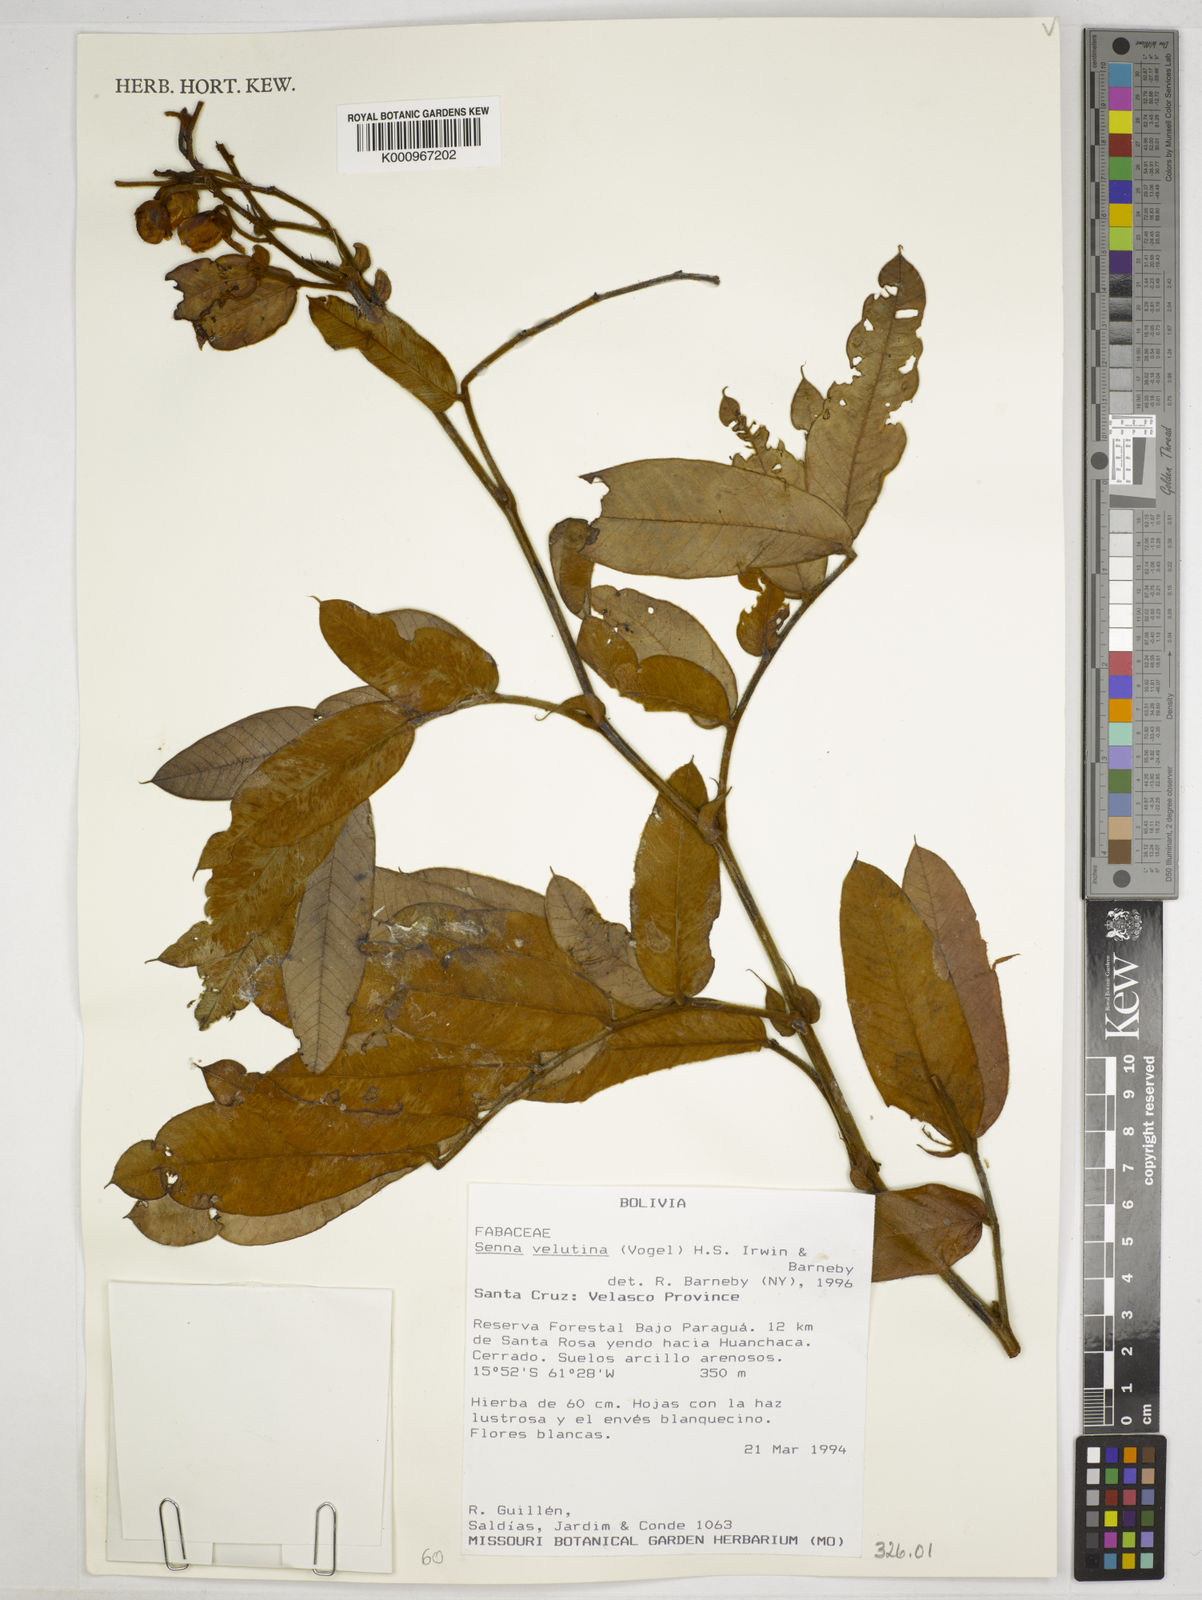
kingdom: Plantae
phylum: Tracheophyta
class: Magnoliopsida
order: Fabales
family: Fabaceae
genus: Senna
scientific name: Senna velutina
